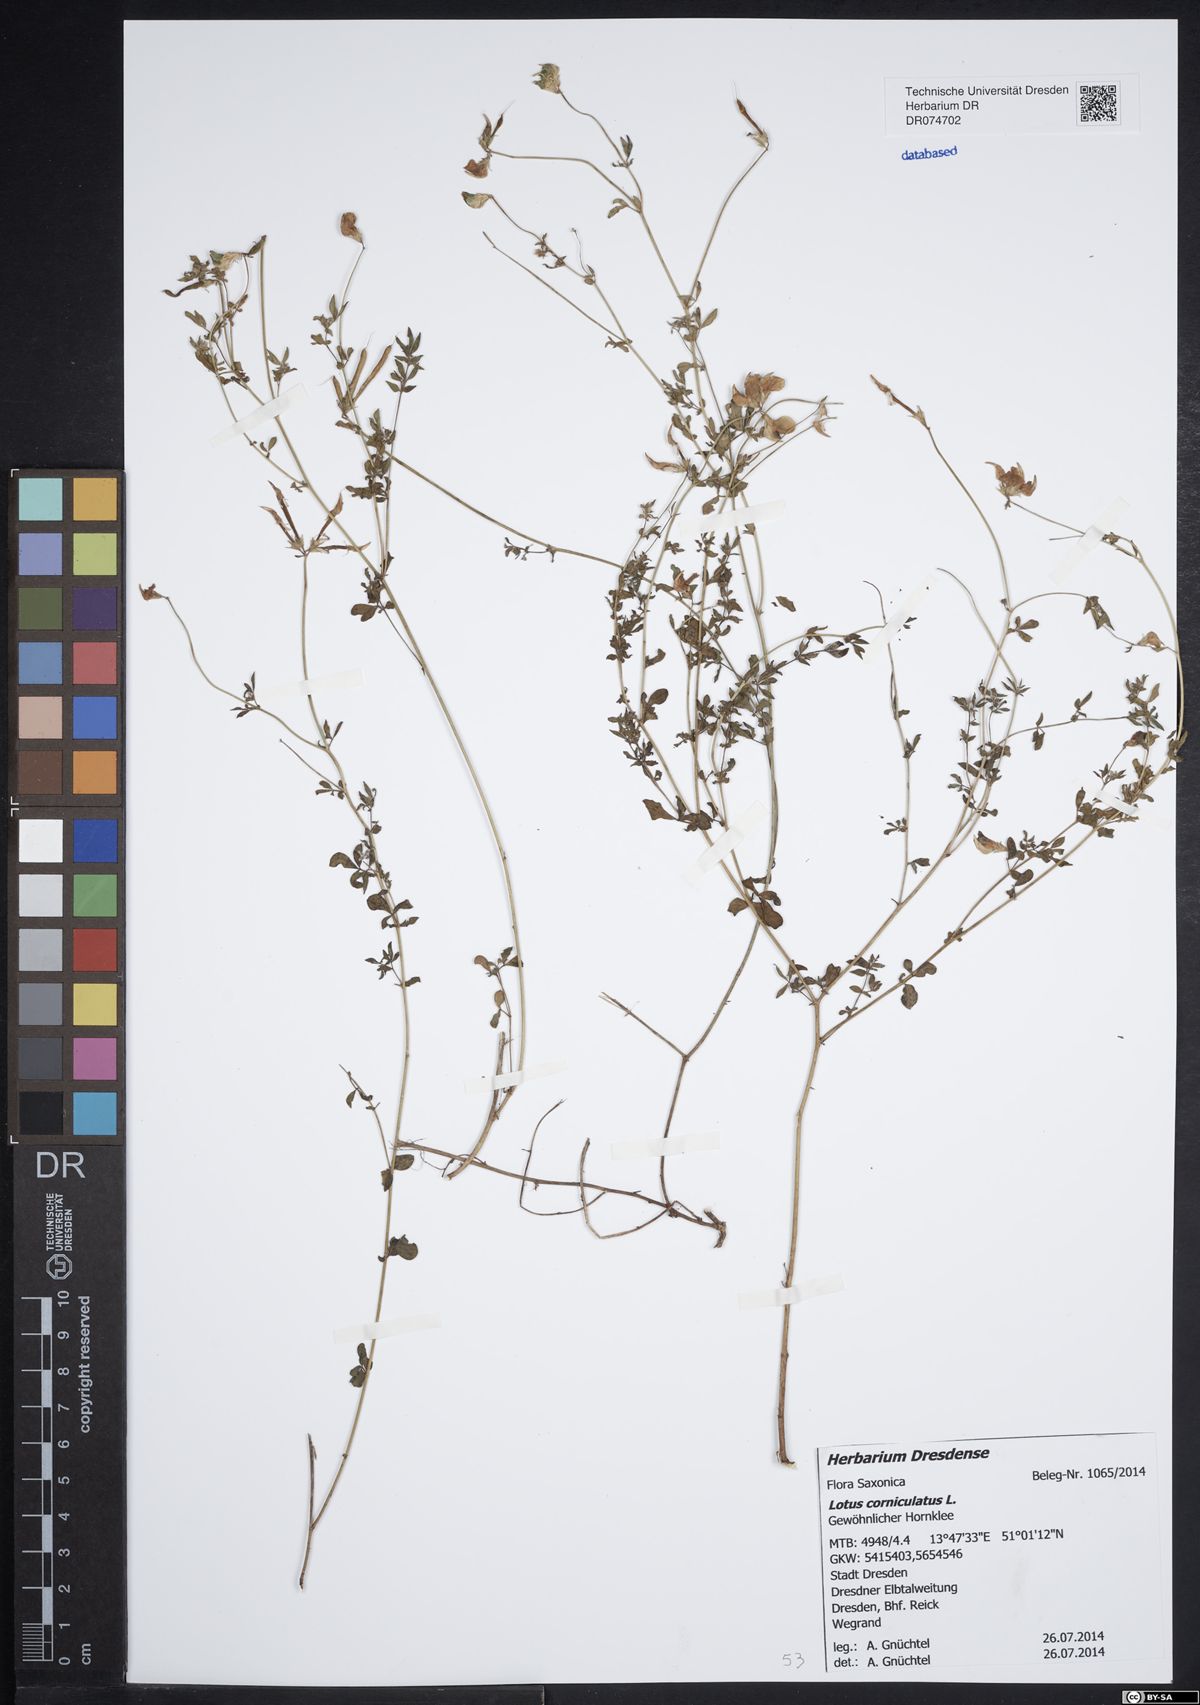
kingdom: Plantae
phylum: Tracheophyta
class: Magnoliopsida
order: Fabales
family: Fabaceae
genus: Lotus
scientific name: Lotus corniculatus
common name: Common bird's-foot-trefoil
